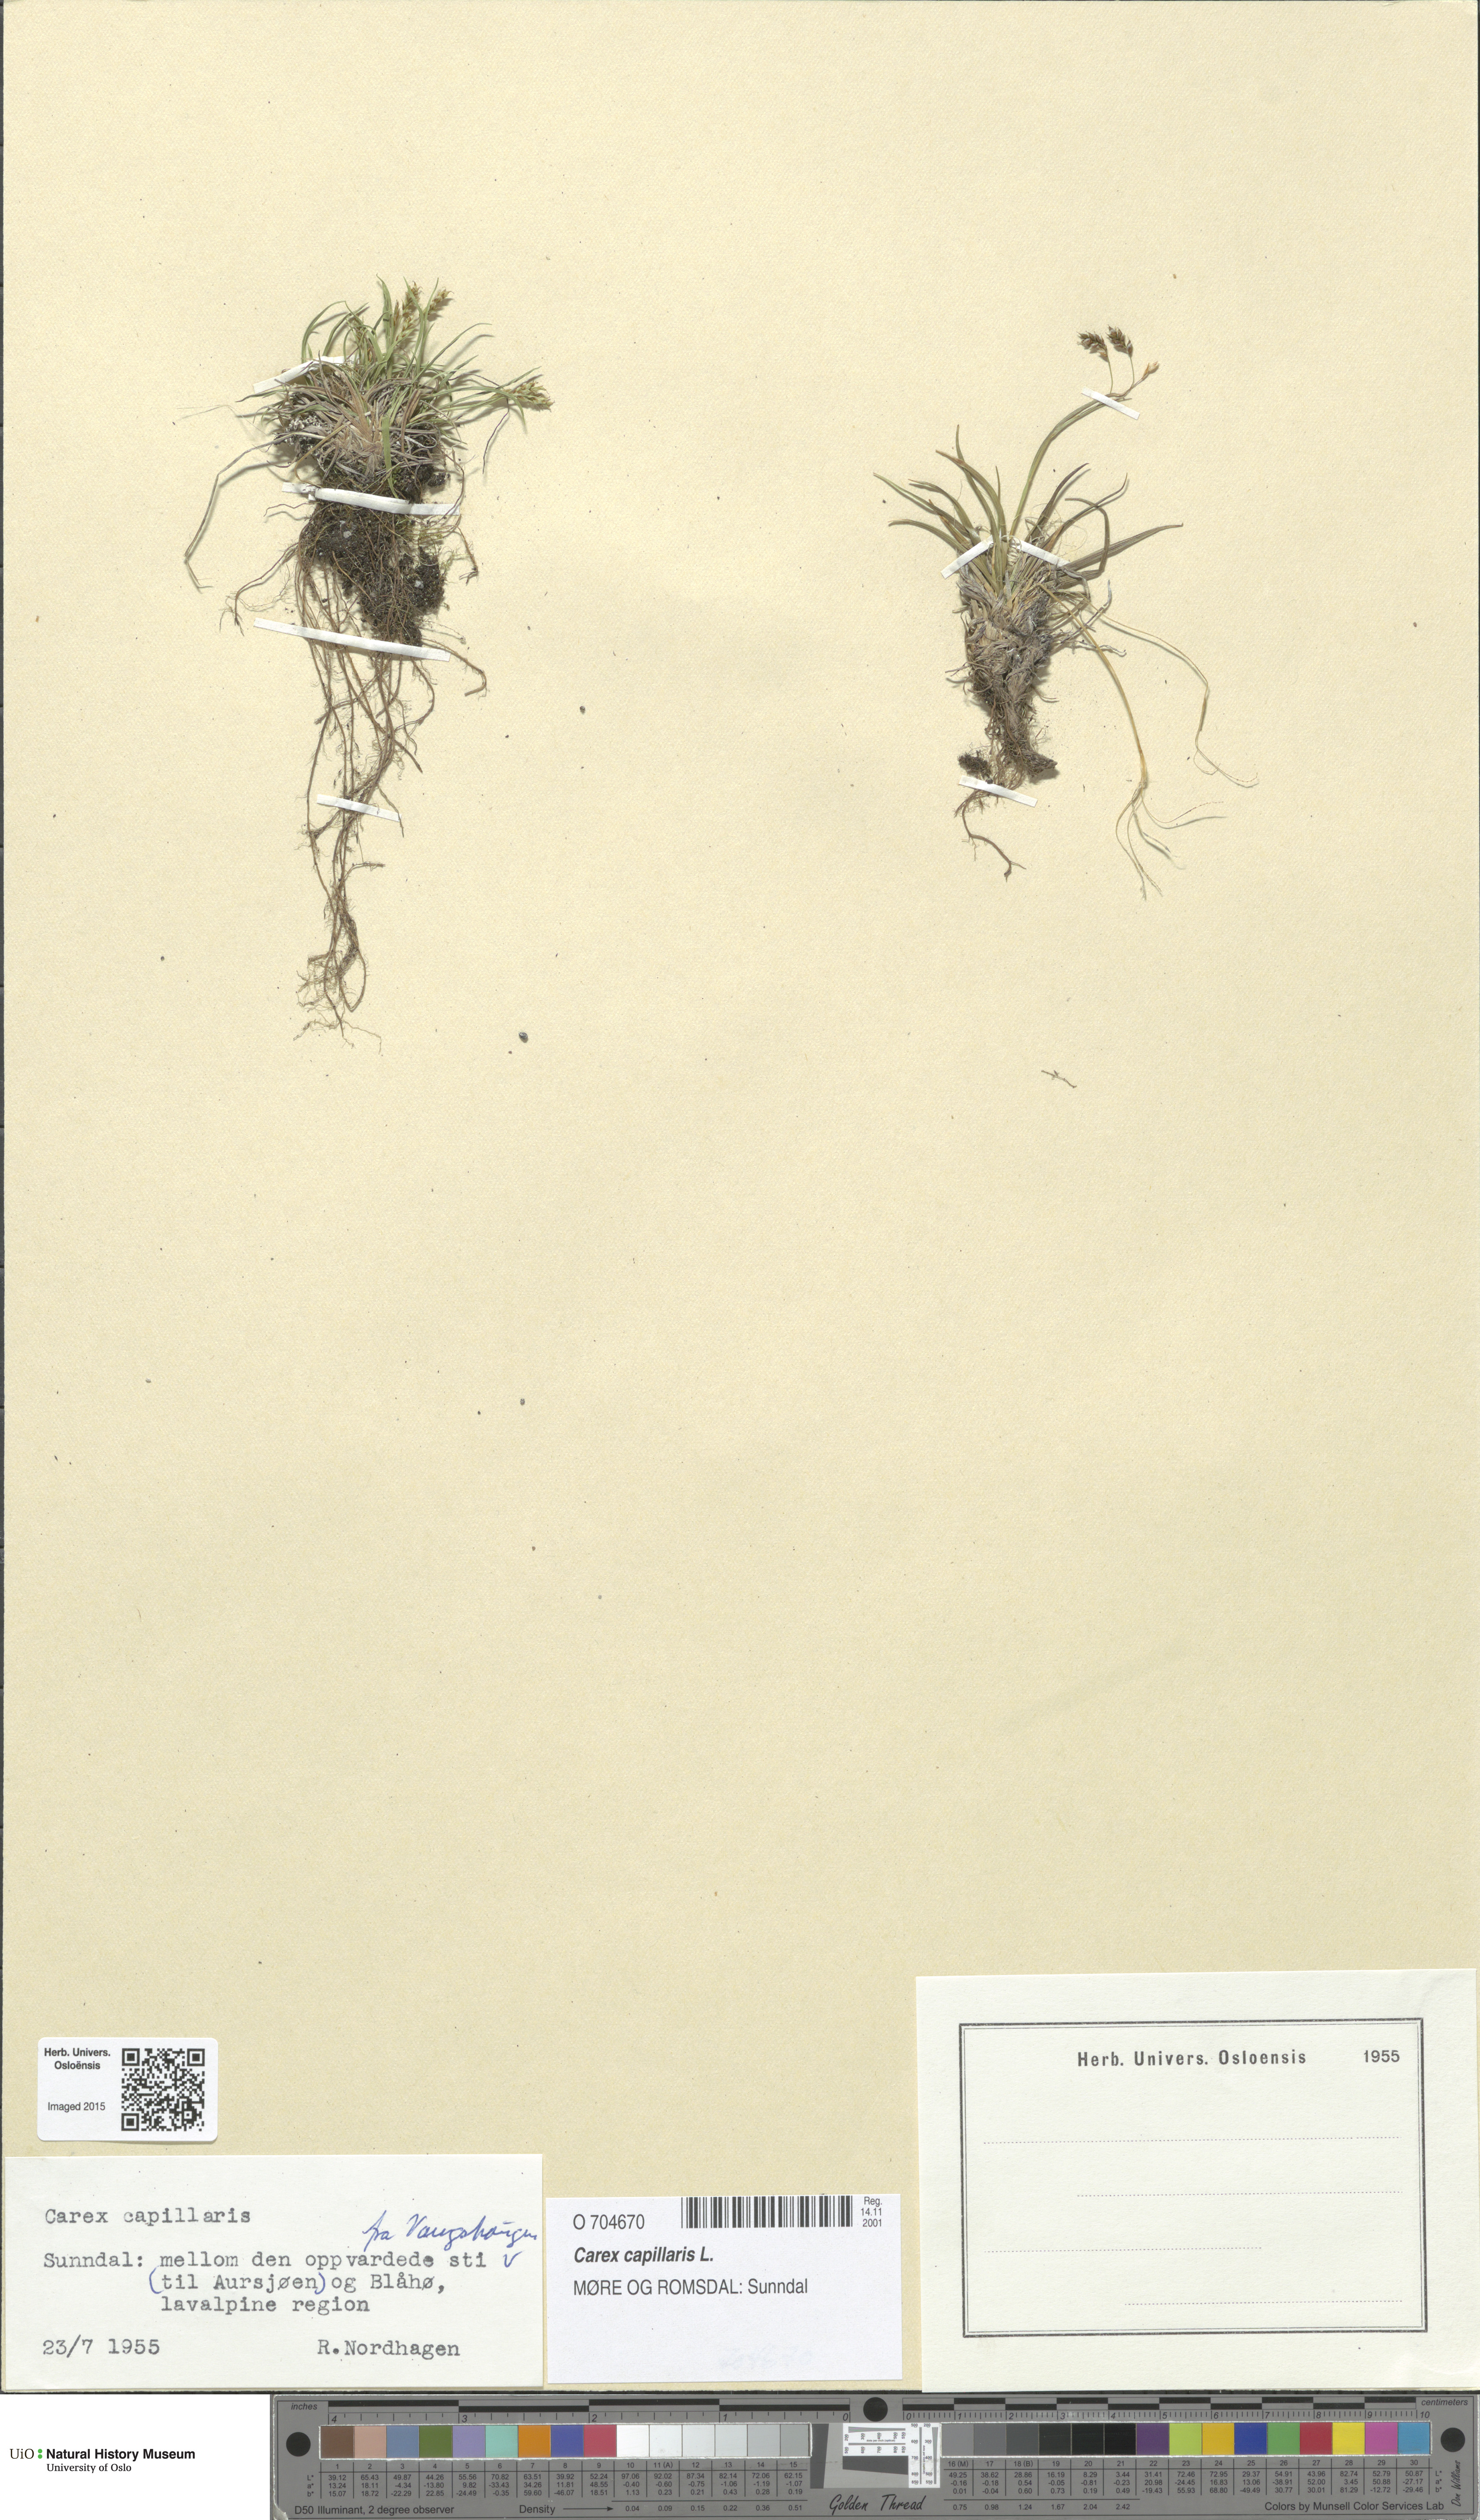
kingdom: Plantae
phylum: Tracheophyta
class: Liliopsida
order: Poales
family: Cyperaceae
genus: Carex
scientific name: Carex capillaris
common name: Hair sedge
